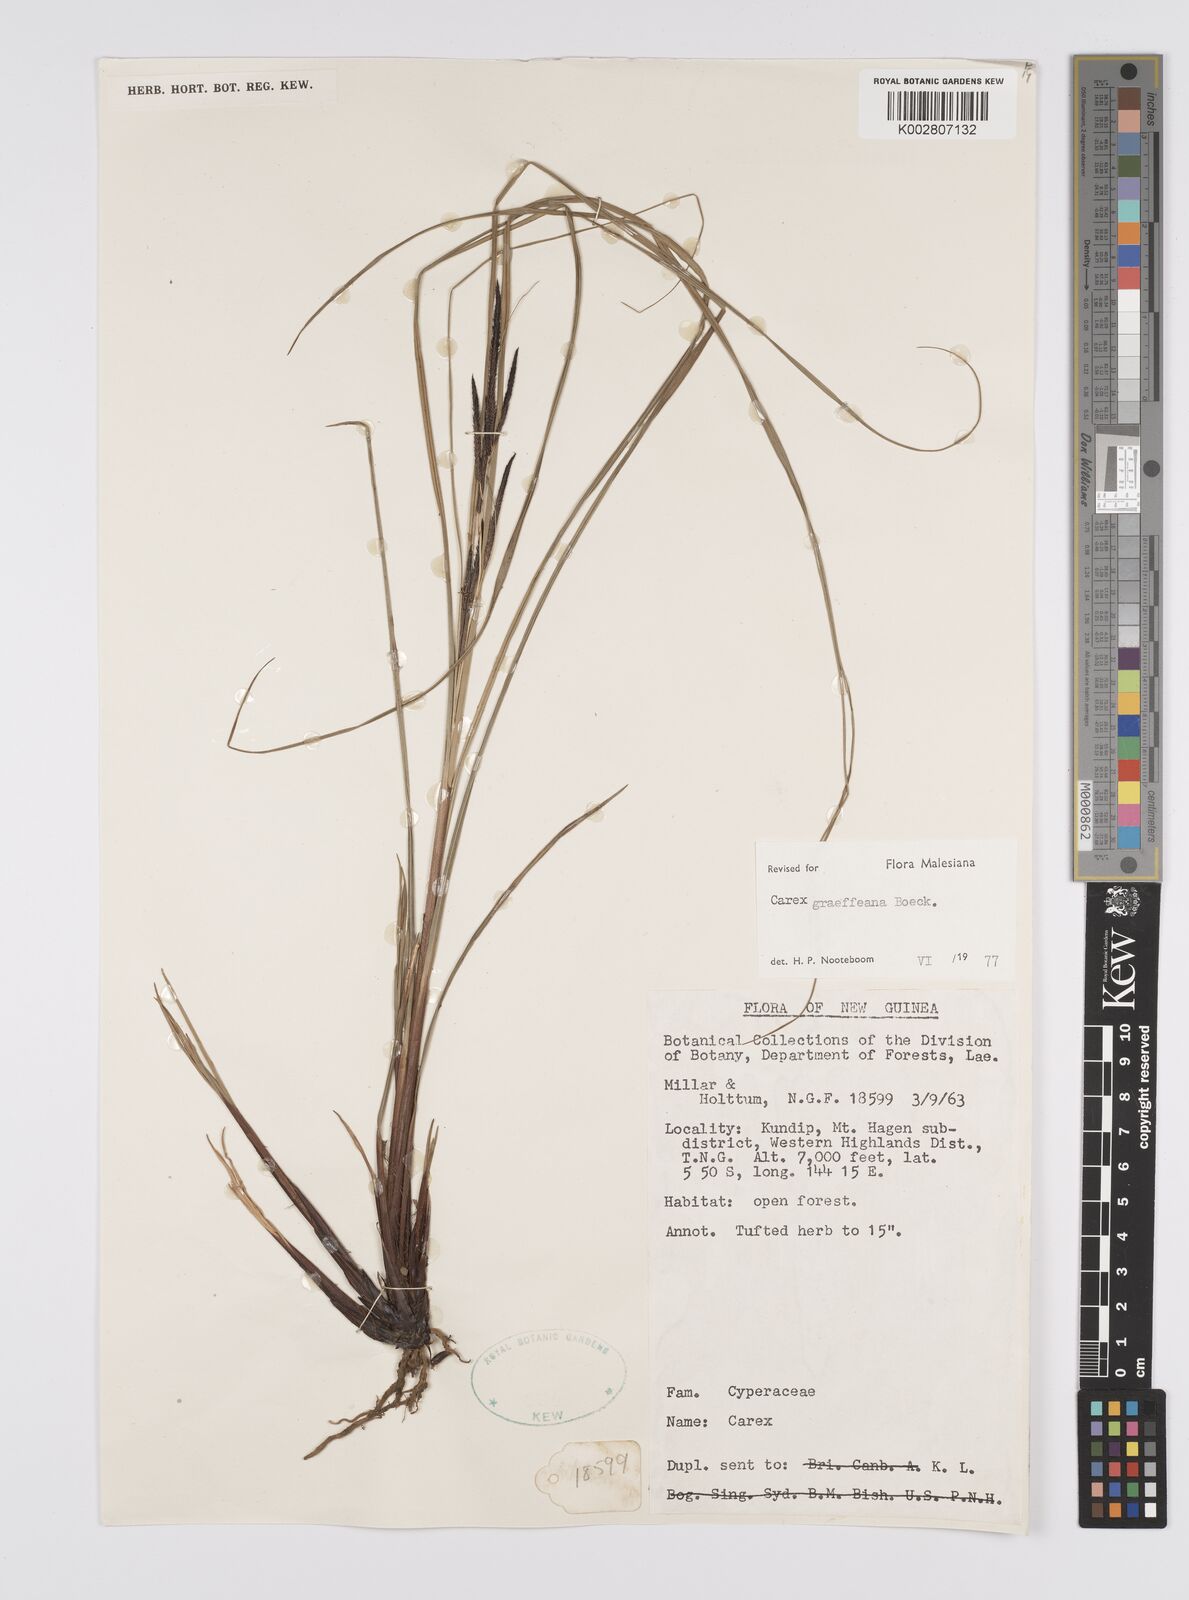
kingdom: Plantae
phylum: Tracheophyta
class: Liliopsida
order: Poales
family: Cyperaceae
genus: Carex
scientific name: Carex graeffeana
